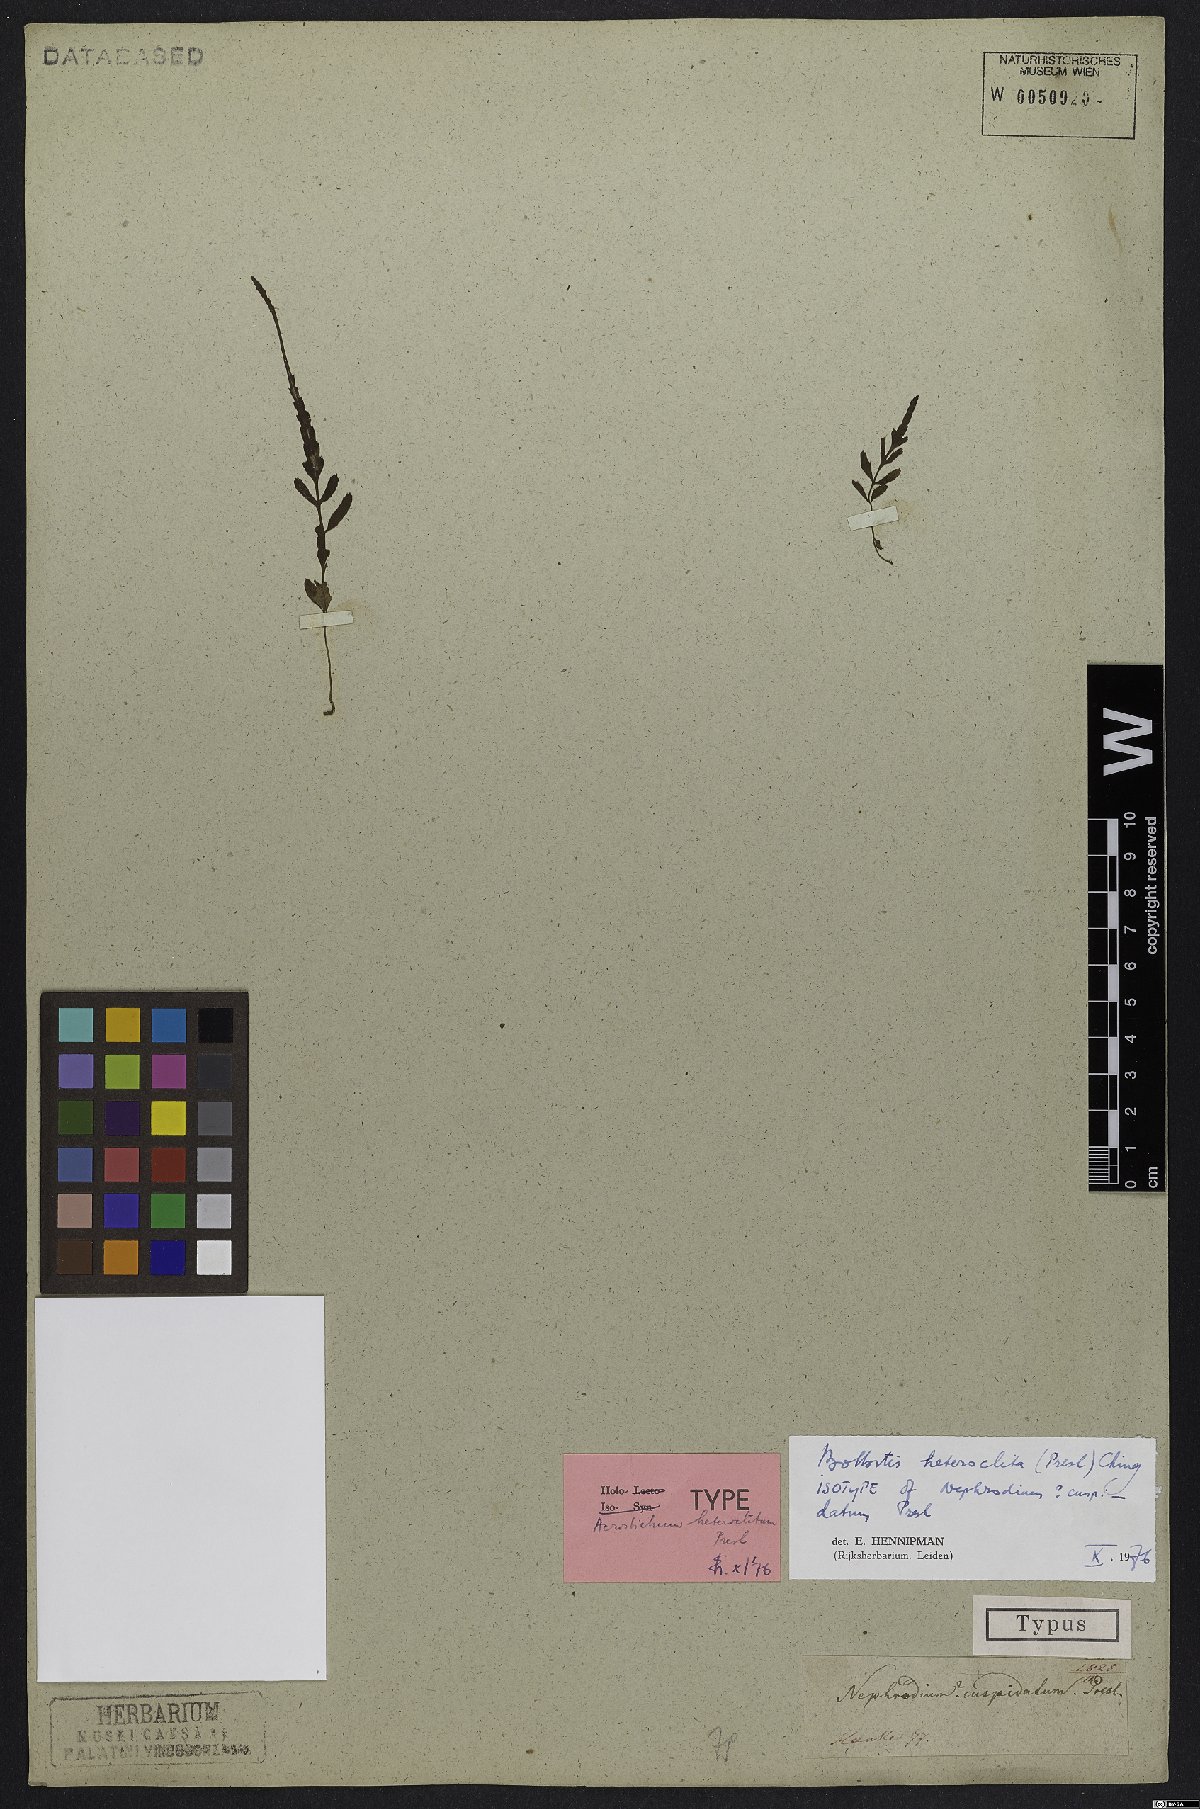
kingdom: Plantae
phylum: Tracheophyta
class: Polypodiopsida
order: Polypodiales
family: Dryopteridaceae
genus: Bolbitis
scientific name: Bolbitis heteroclita
